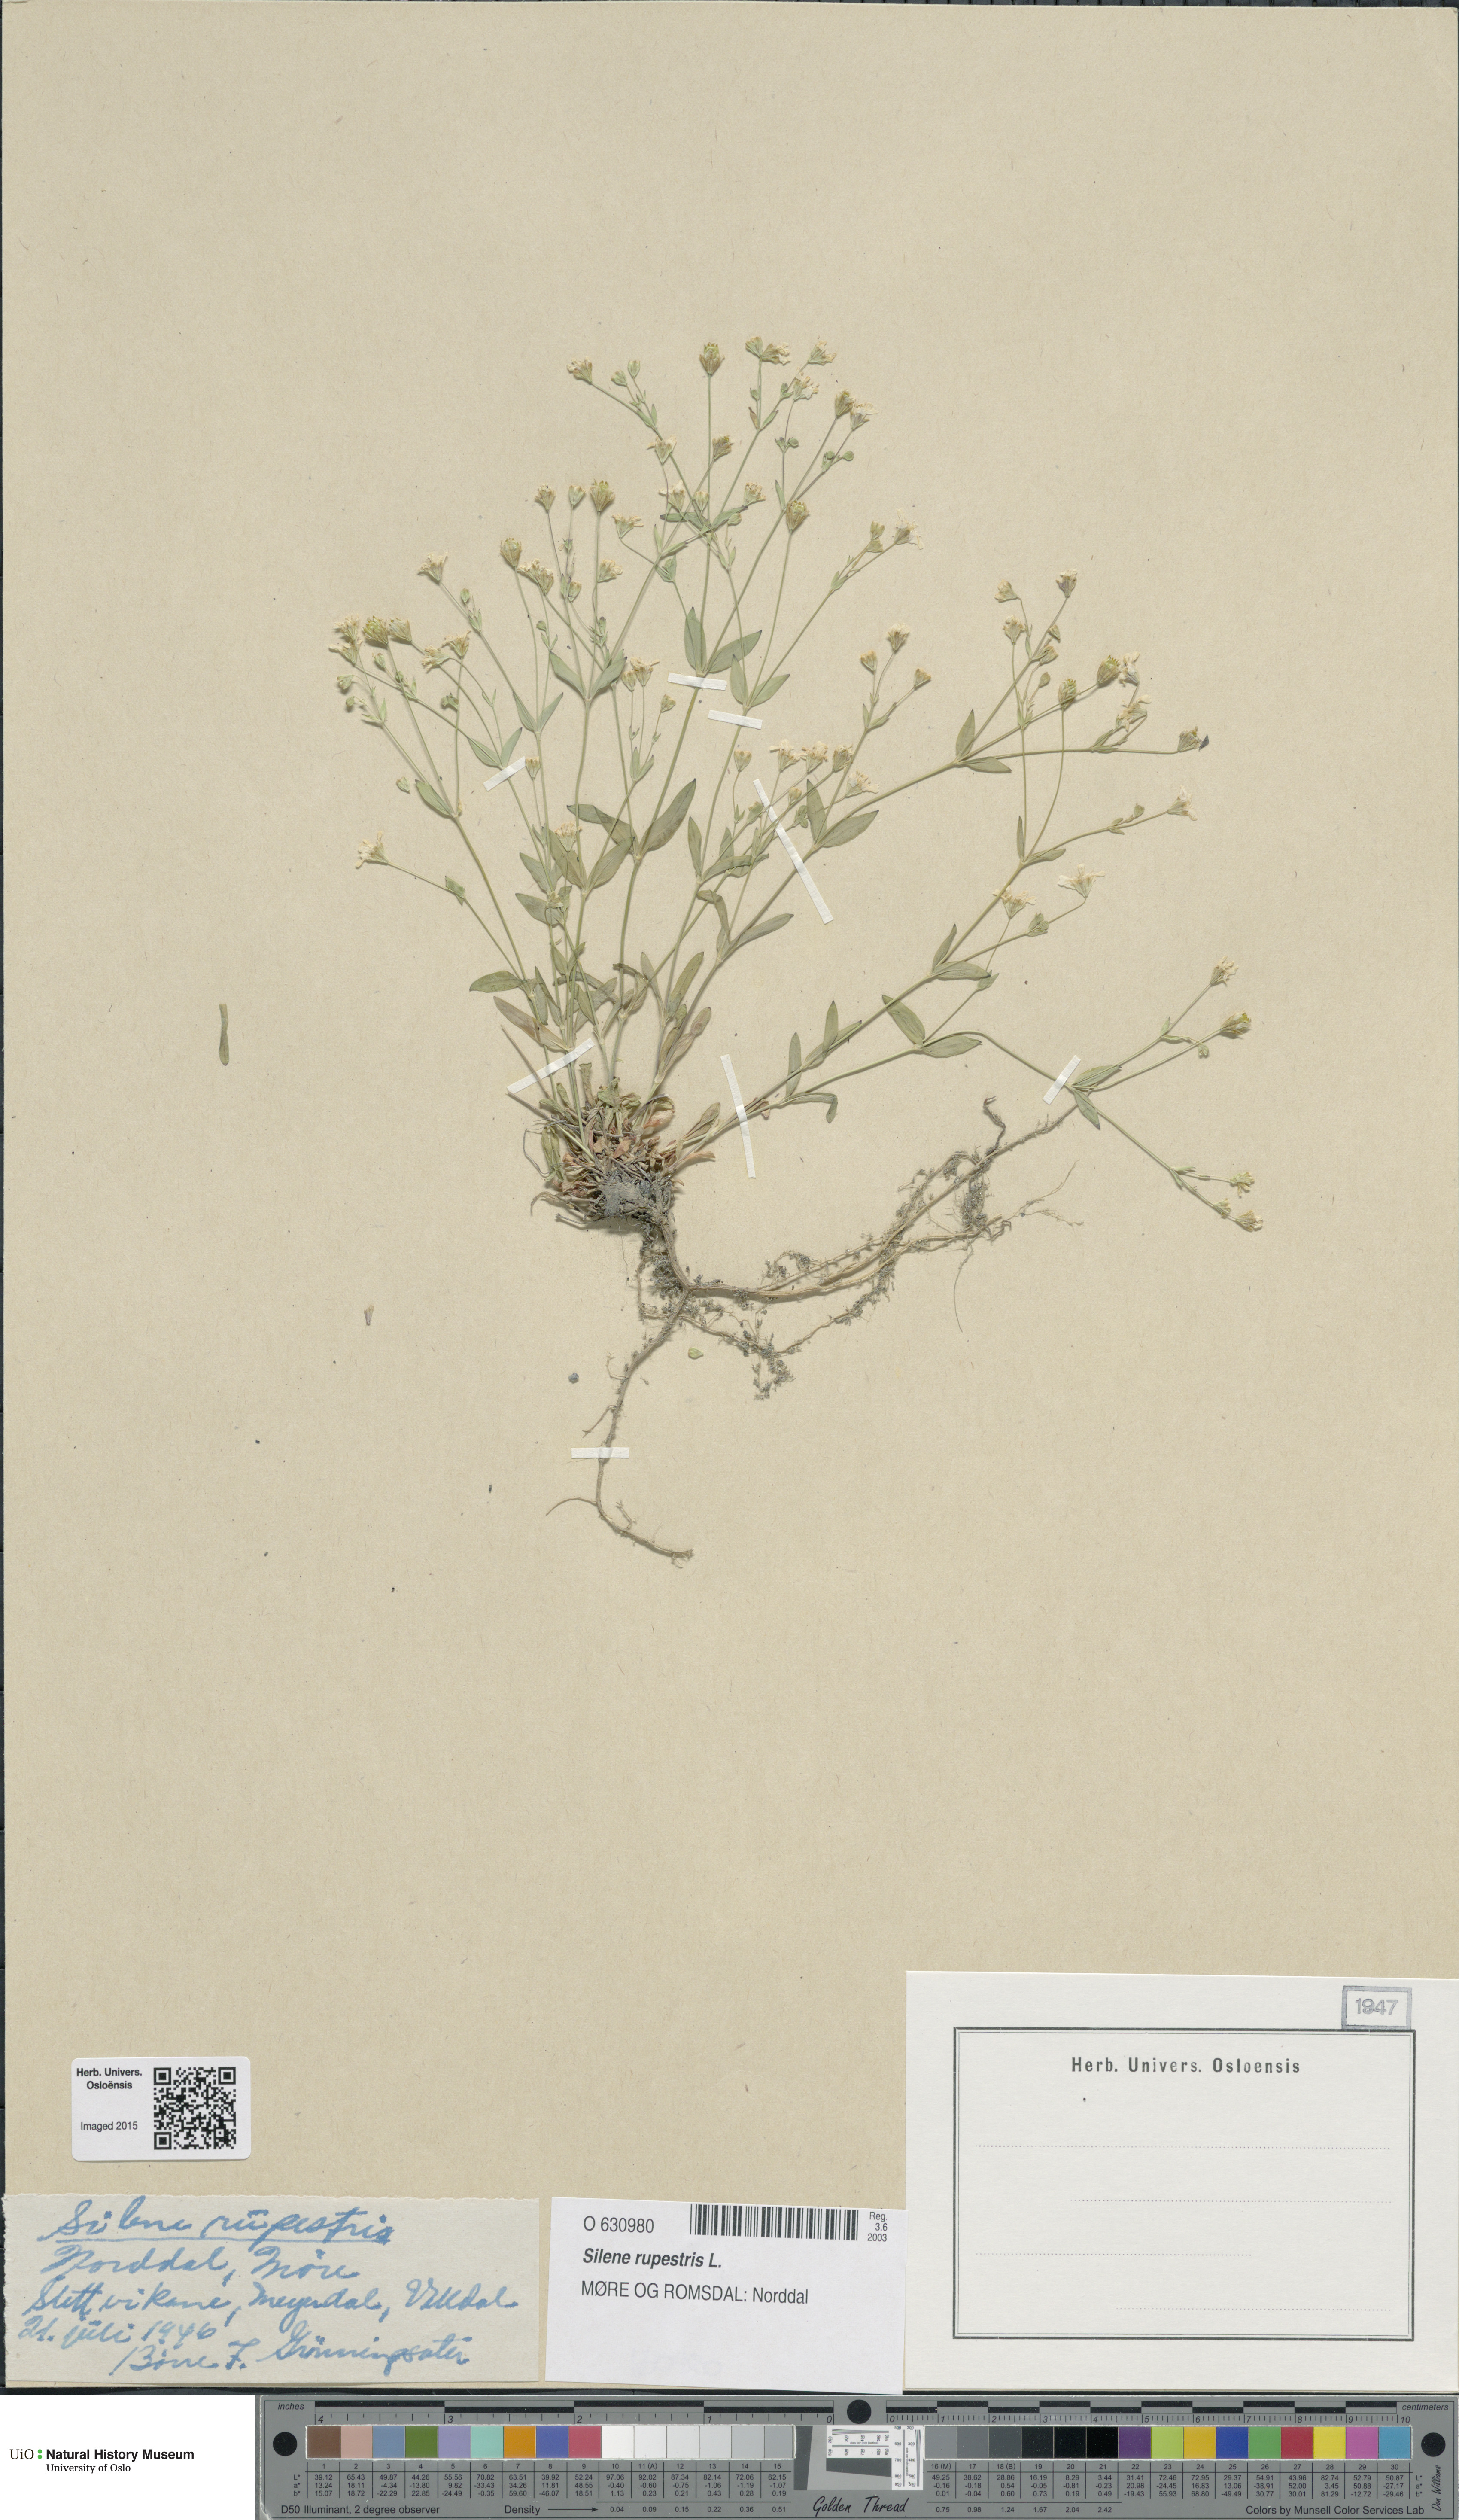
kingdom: Plantae
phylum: Tracheophyta
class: Magnoliopsida
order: Caryophyllales
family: Caryophyllaceae
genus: Atocion
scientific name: Atocion rupestre
